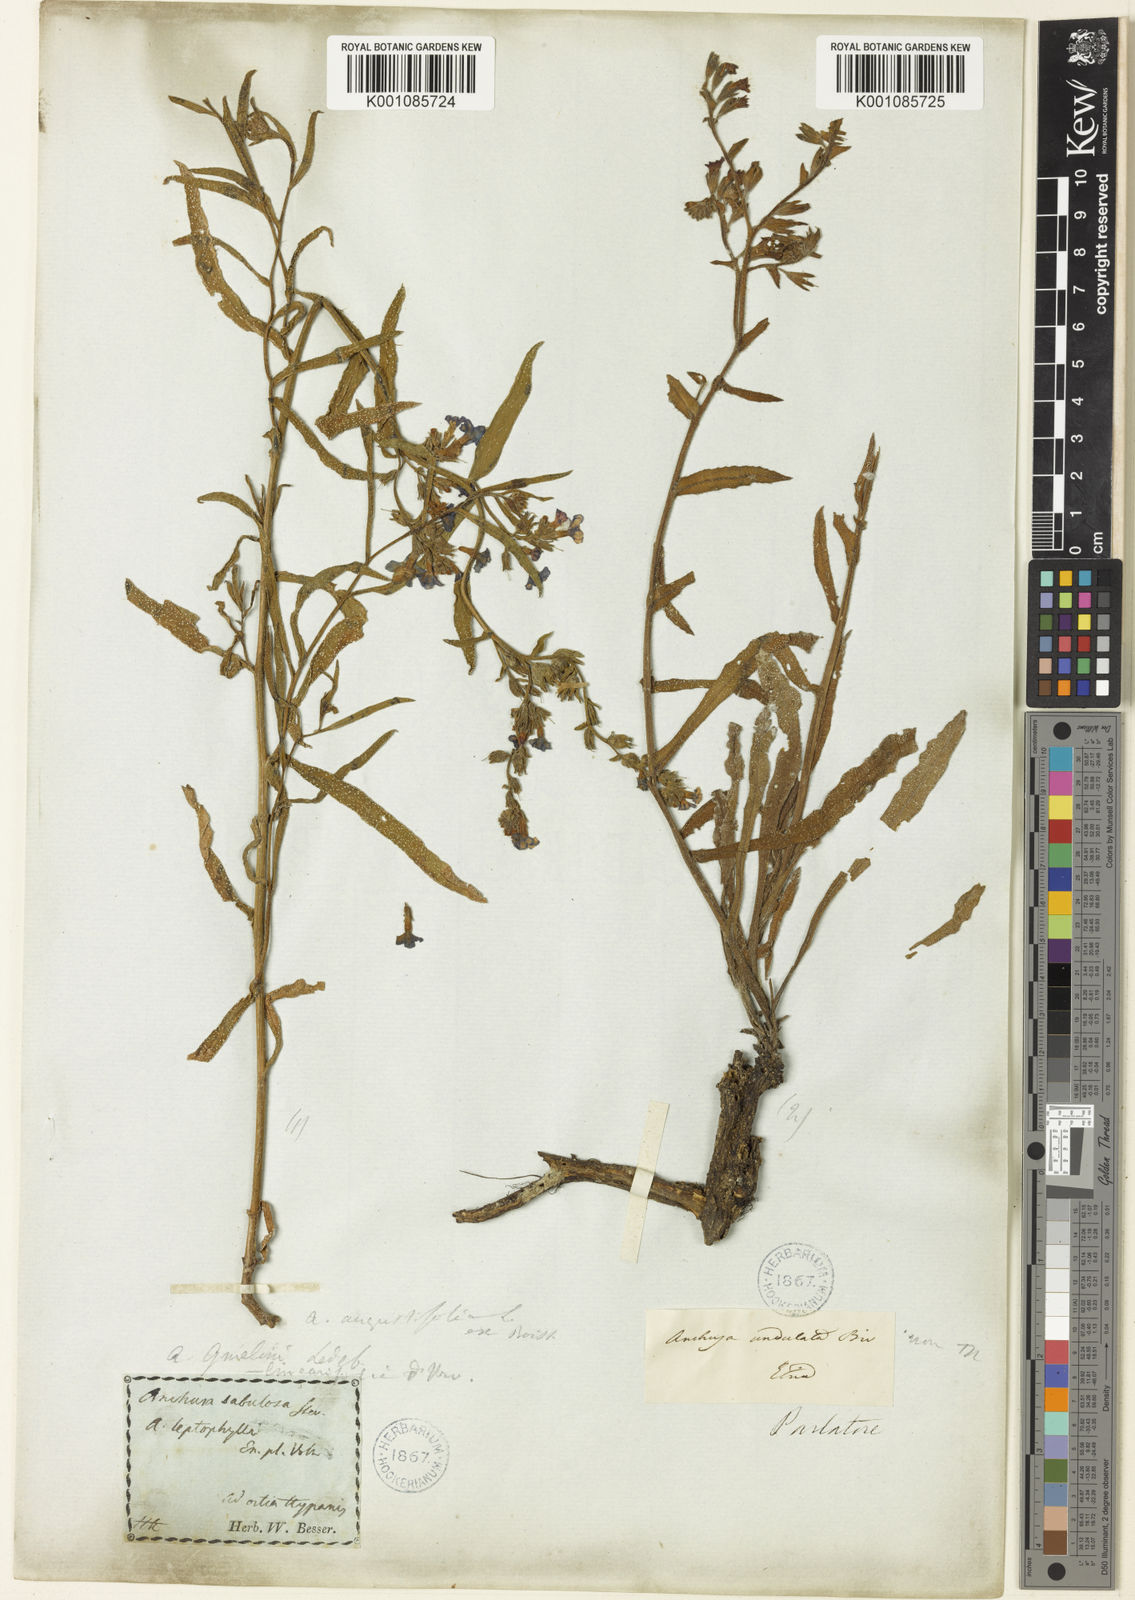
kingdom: Plantae
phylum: Tracheophyta
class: Magnoliopsida
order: Boraginales
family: Boraginaceae
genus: Anchusa
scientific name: Anchusa
